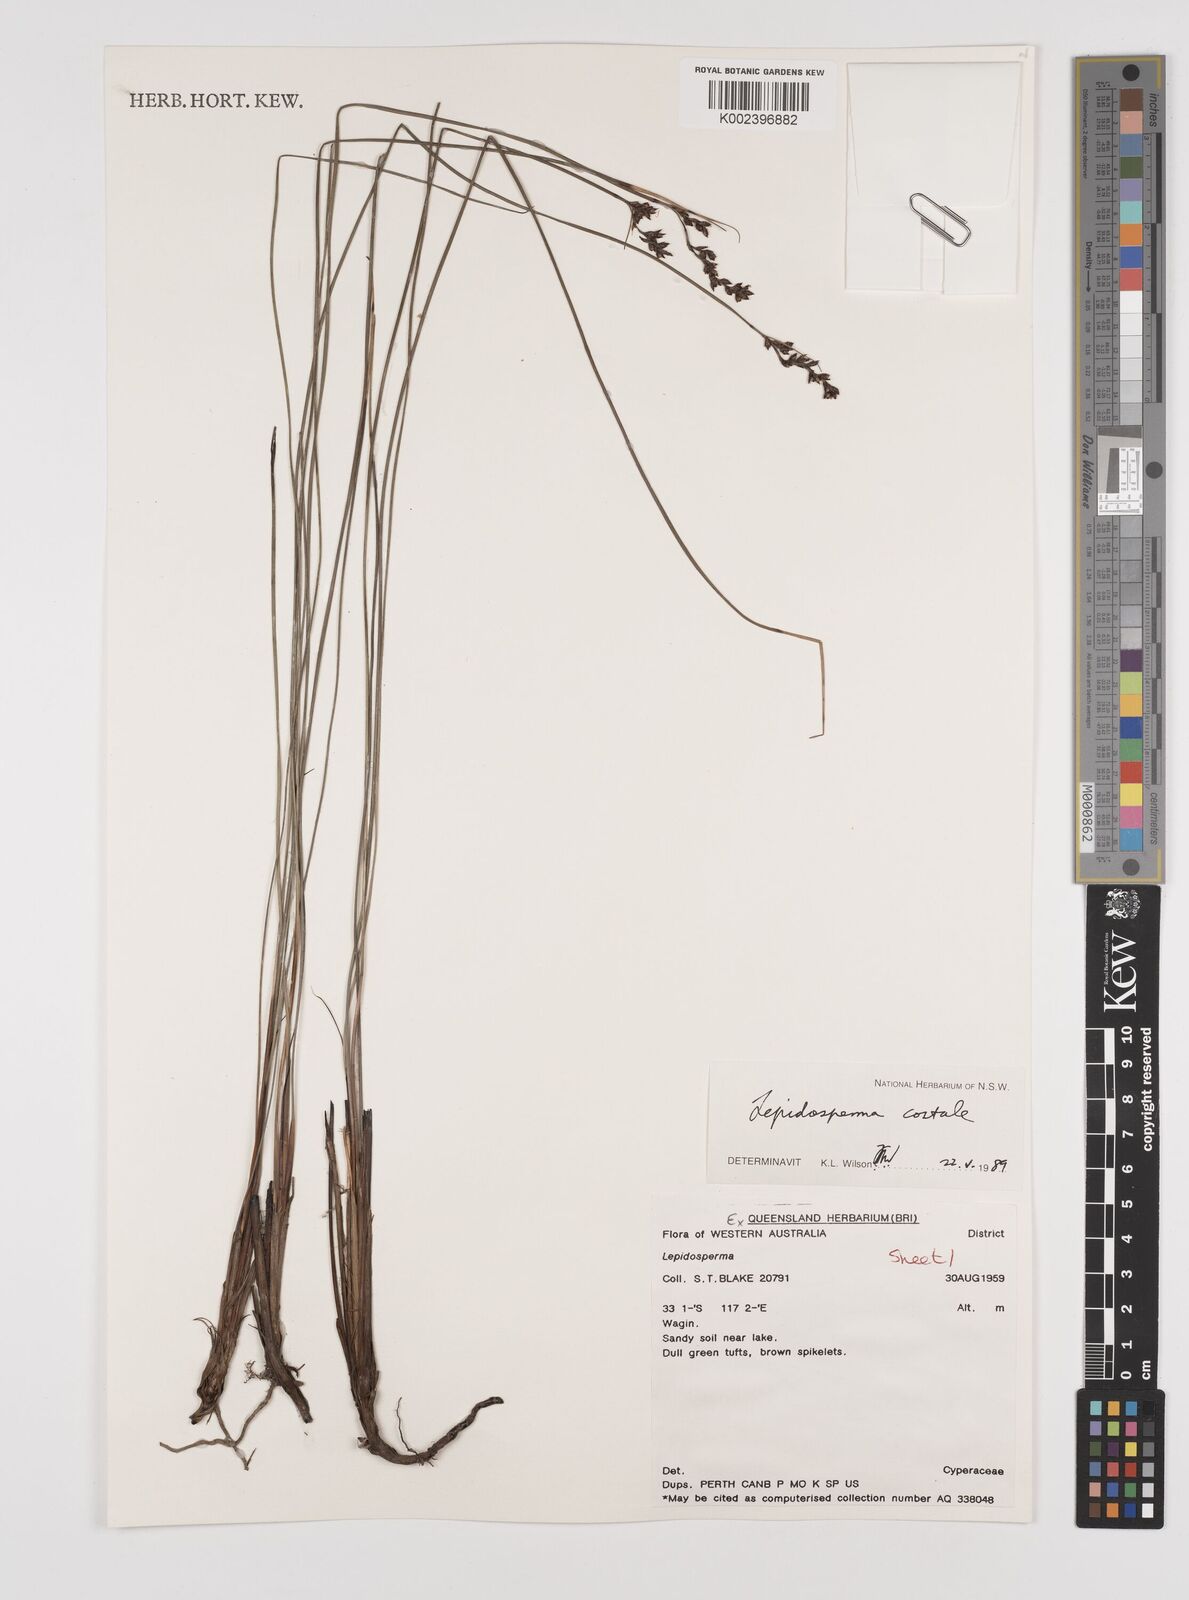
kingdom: Plantae
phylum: Tracheophyta
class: Liliopsida
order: Poales
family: Cyperaceae
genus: Lepidosperma
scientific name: Lepidosperma costale
